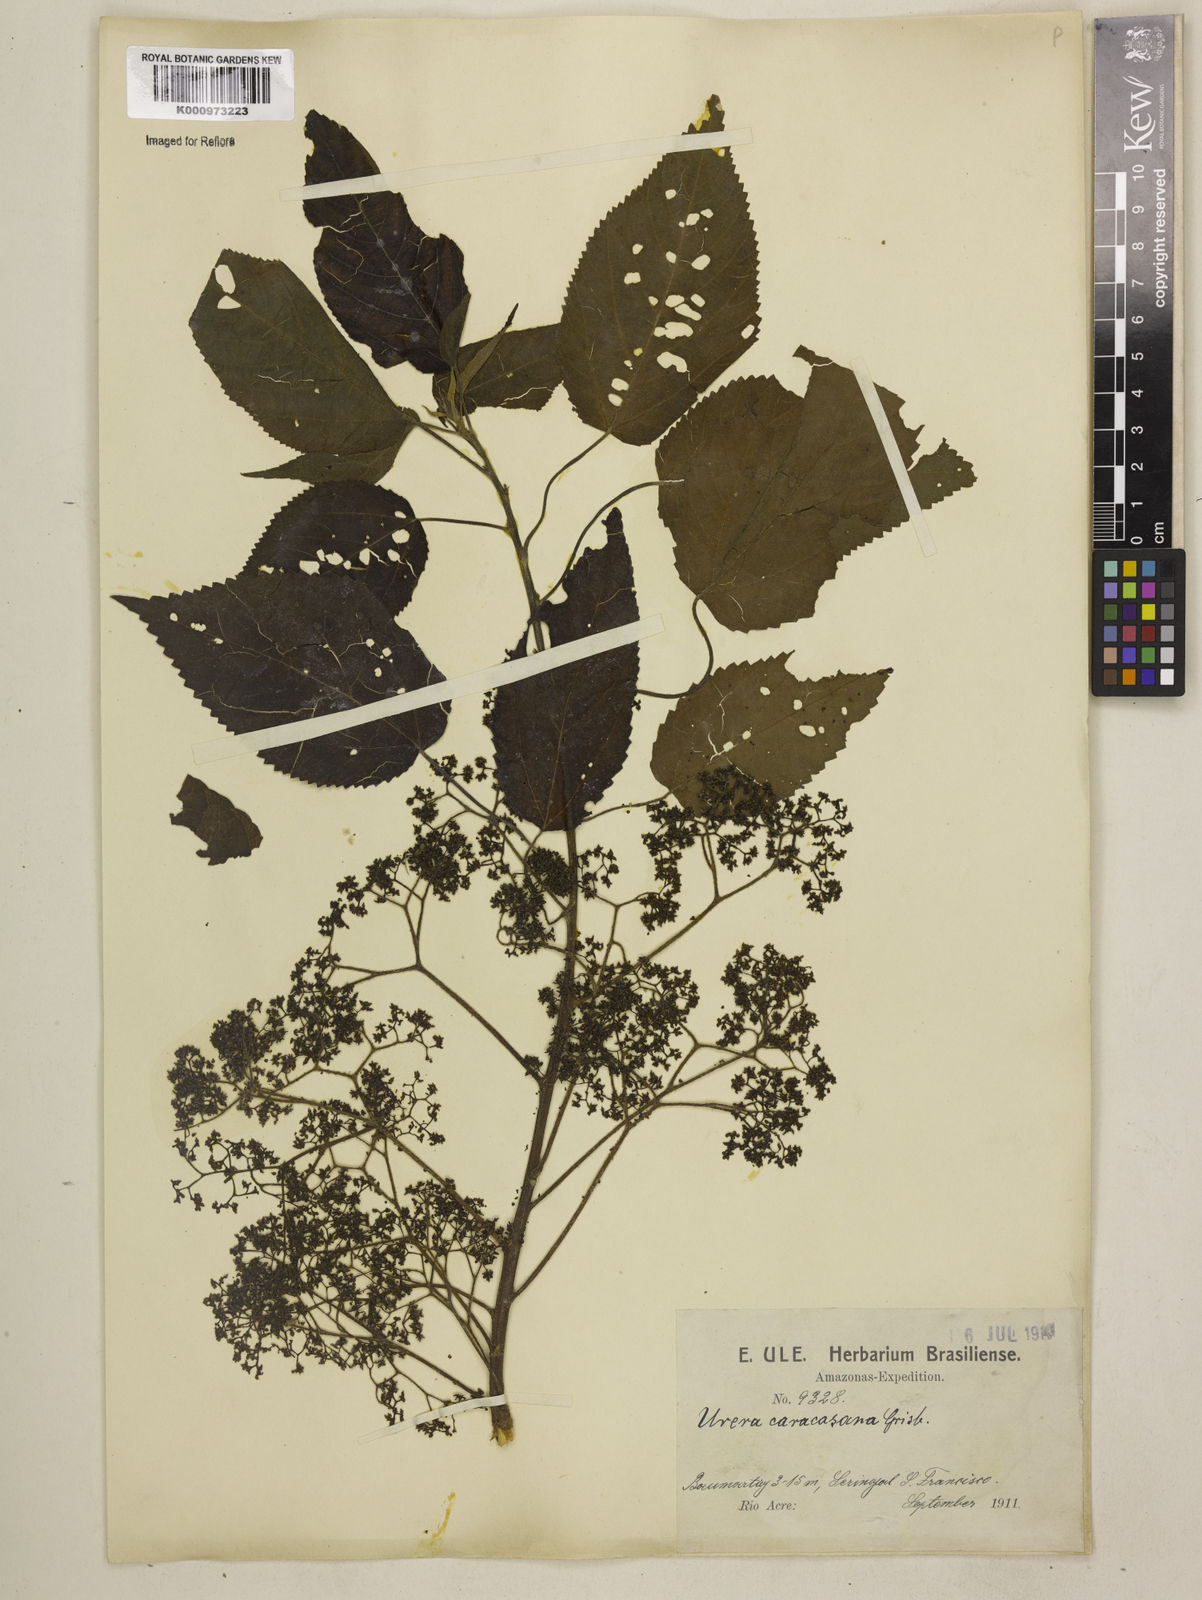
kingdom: Plantae
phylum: Tracheophyta
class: Magnoliopsida
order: Rosales
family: Urticaceae
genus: Urera
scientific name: Urera caracasana
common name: Flameberry
